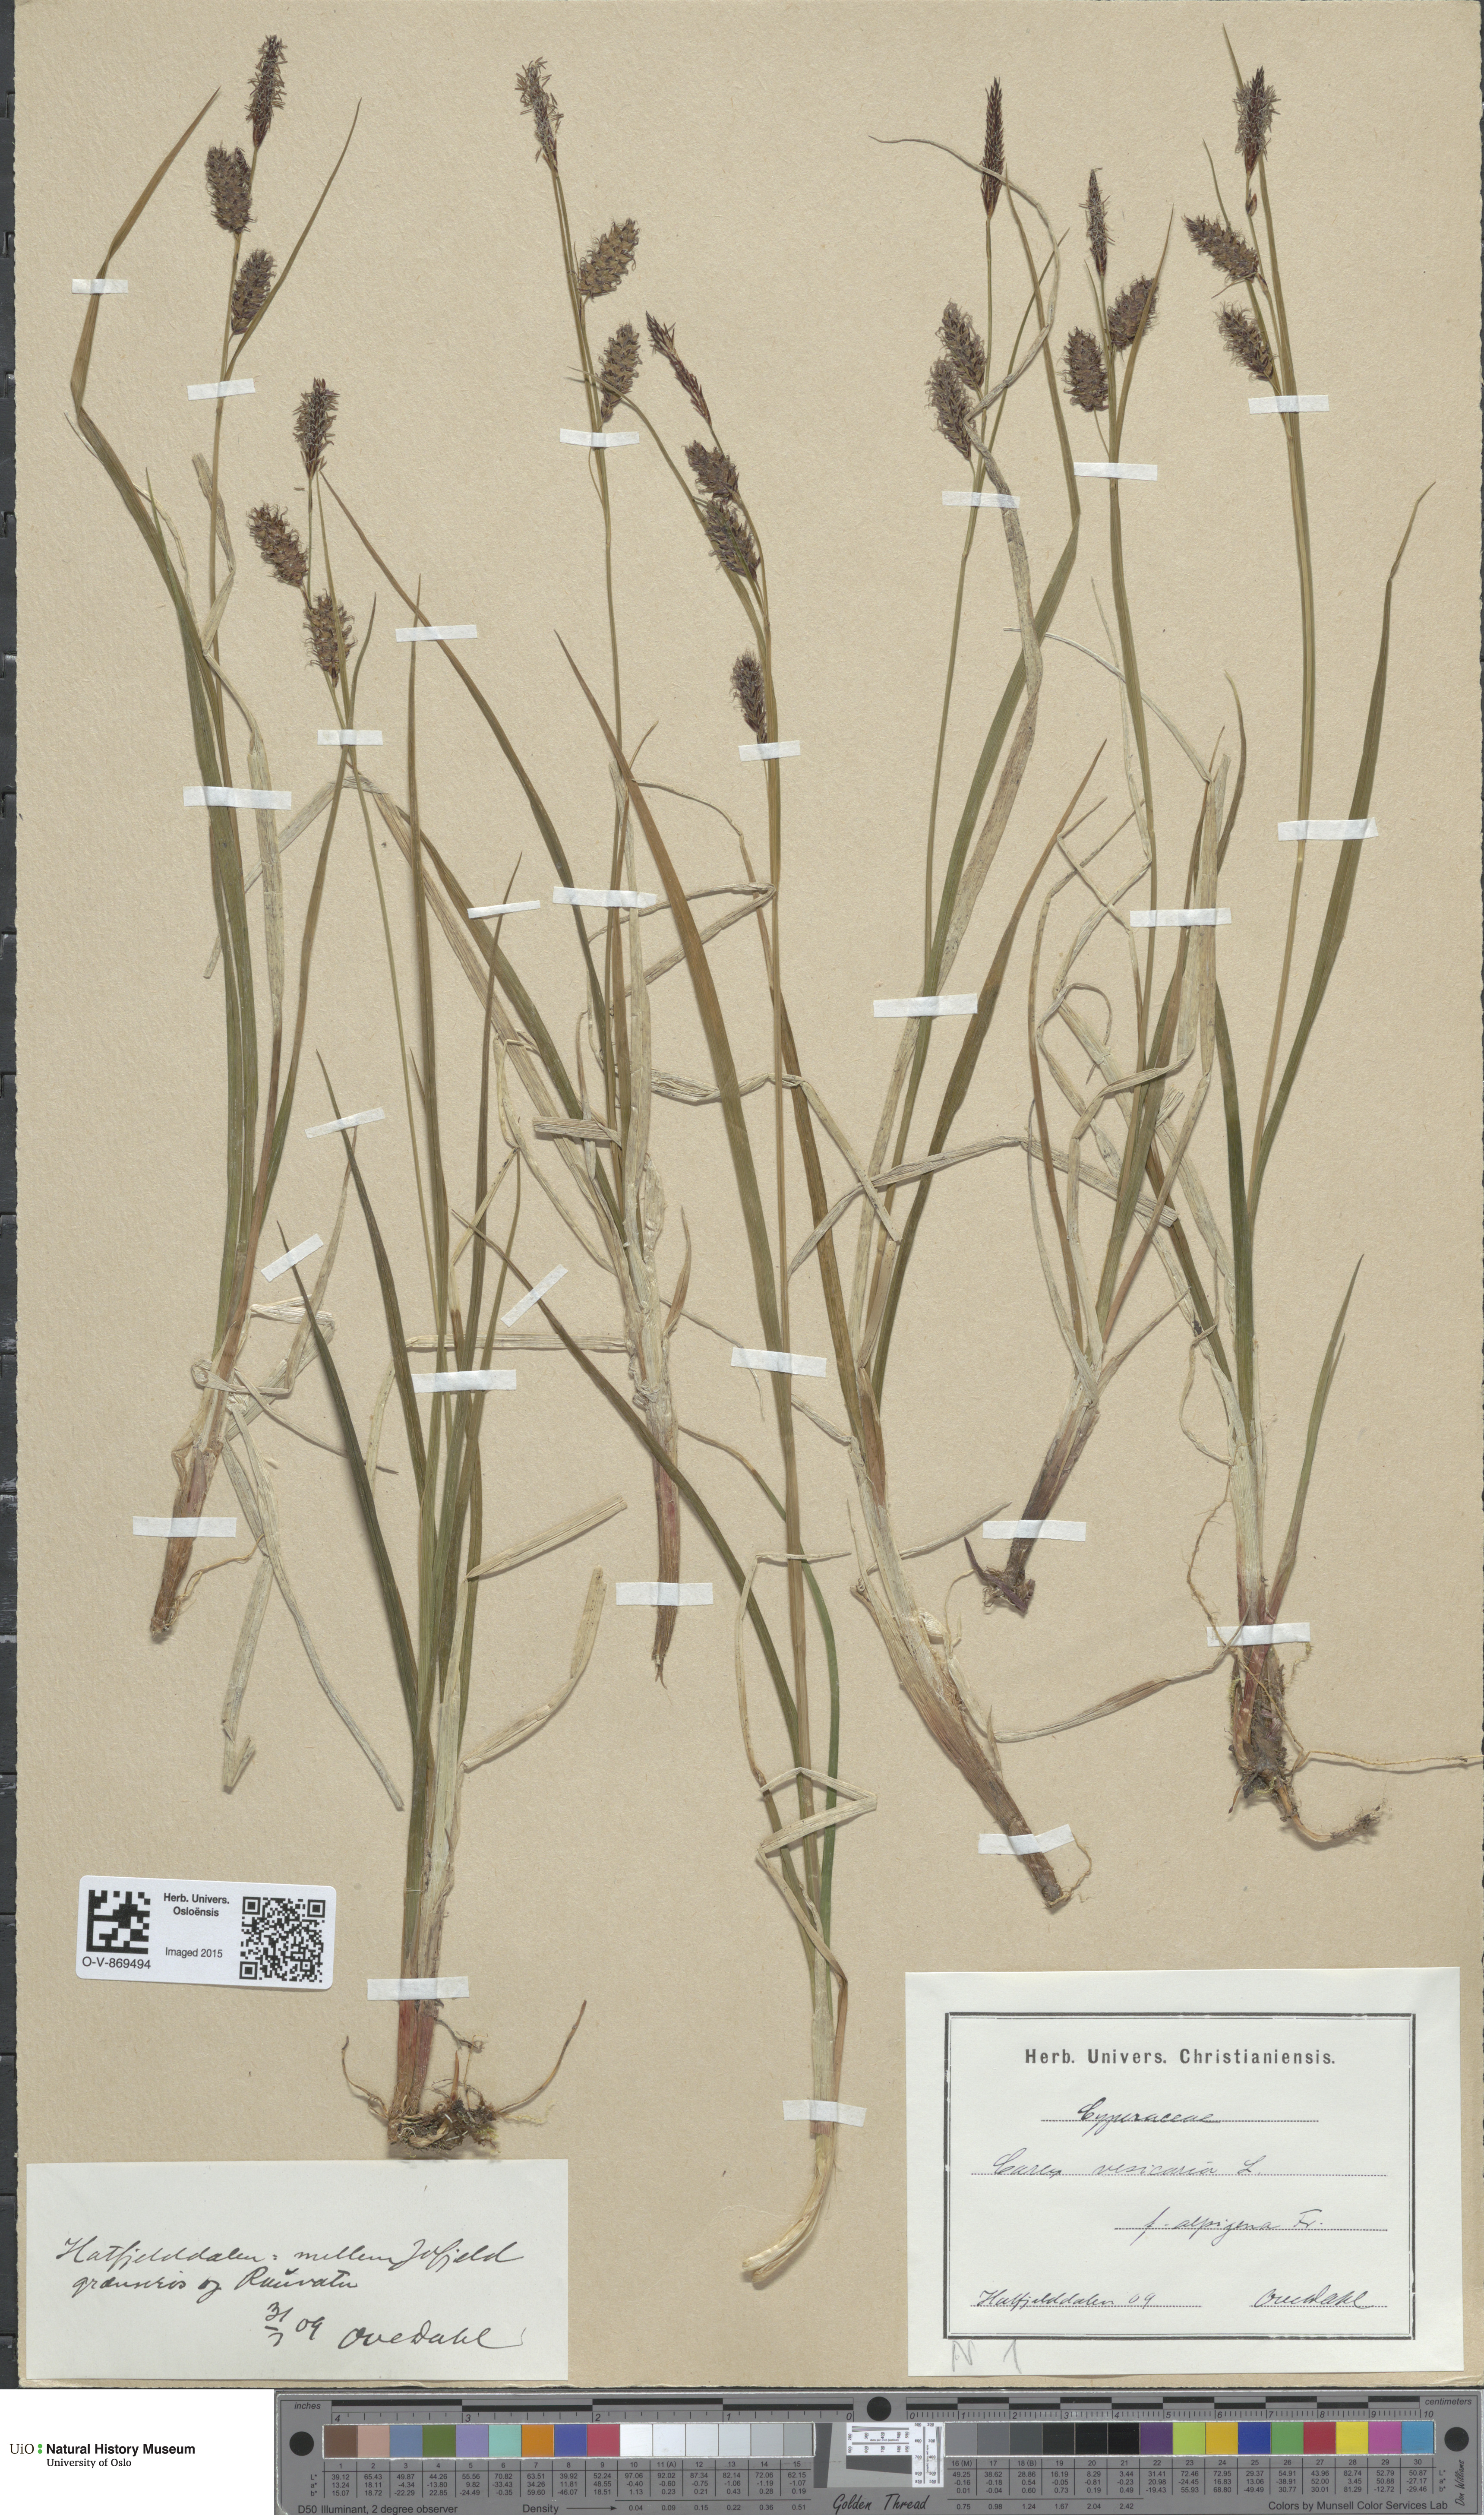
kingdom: Plantae
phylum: Tracheophyta
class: Liliopsida
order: Poales
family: Cyperaceae
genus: Carex
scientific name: Carex grahamii
